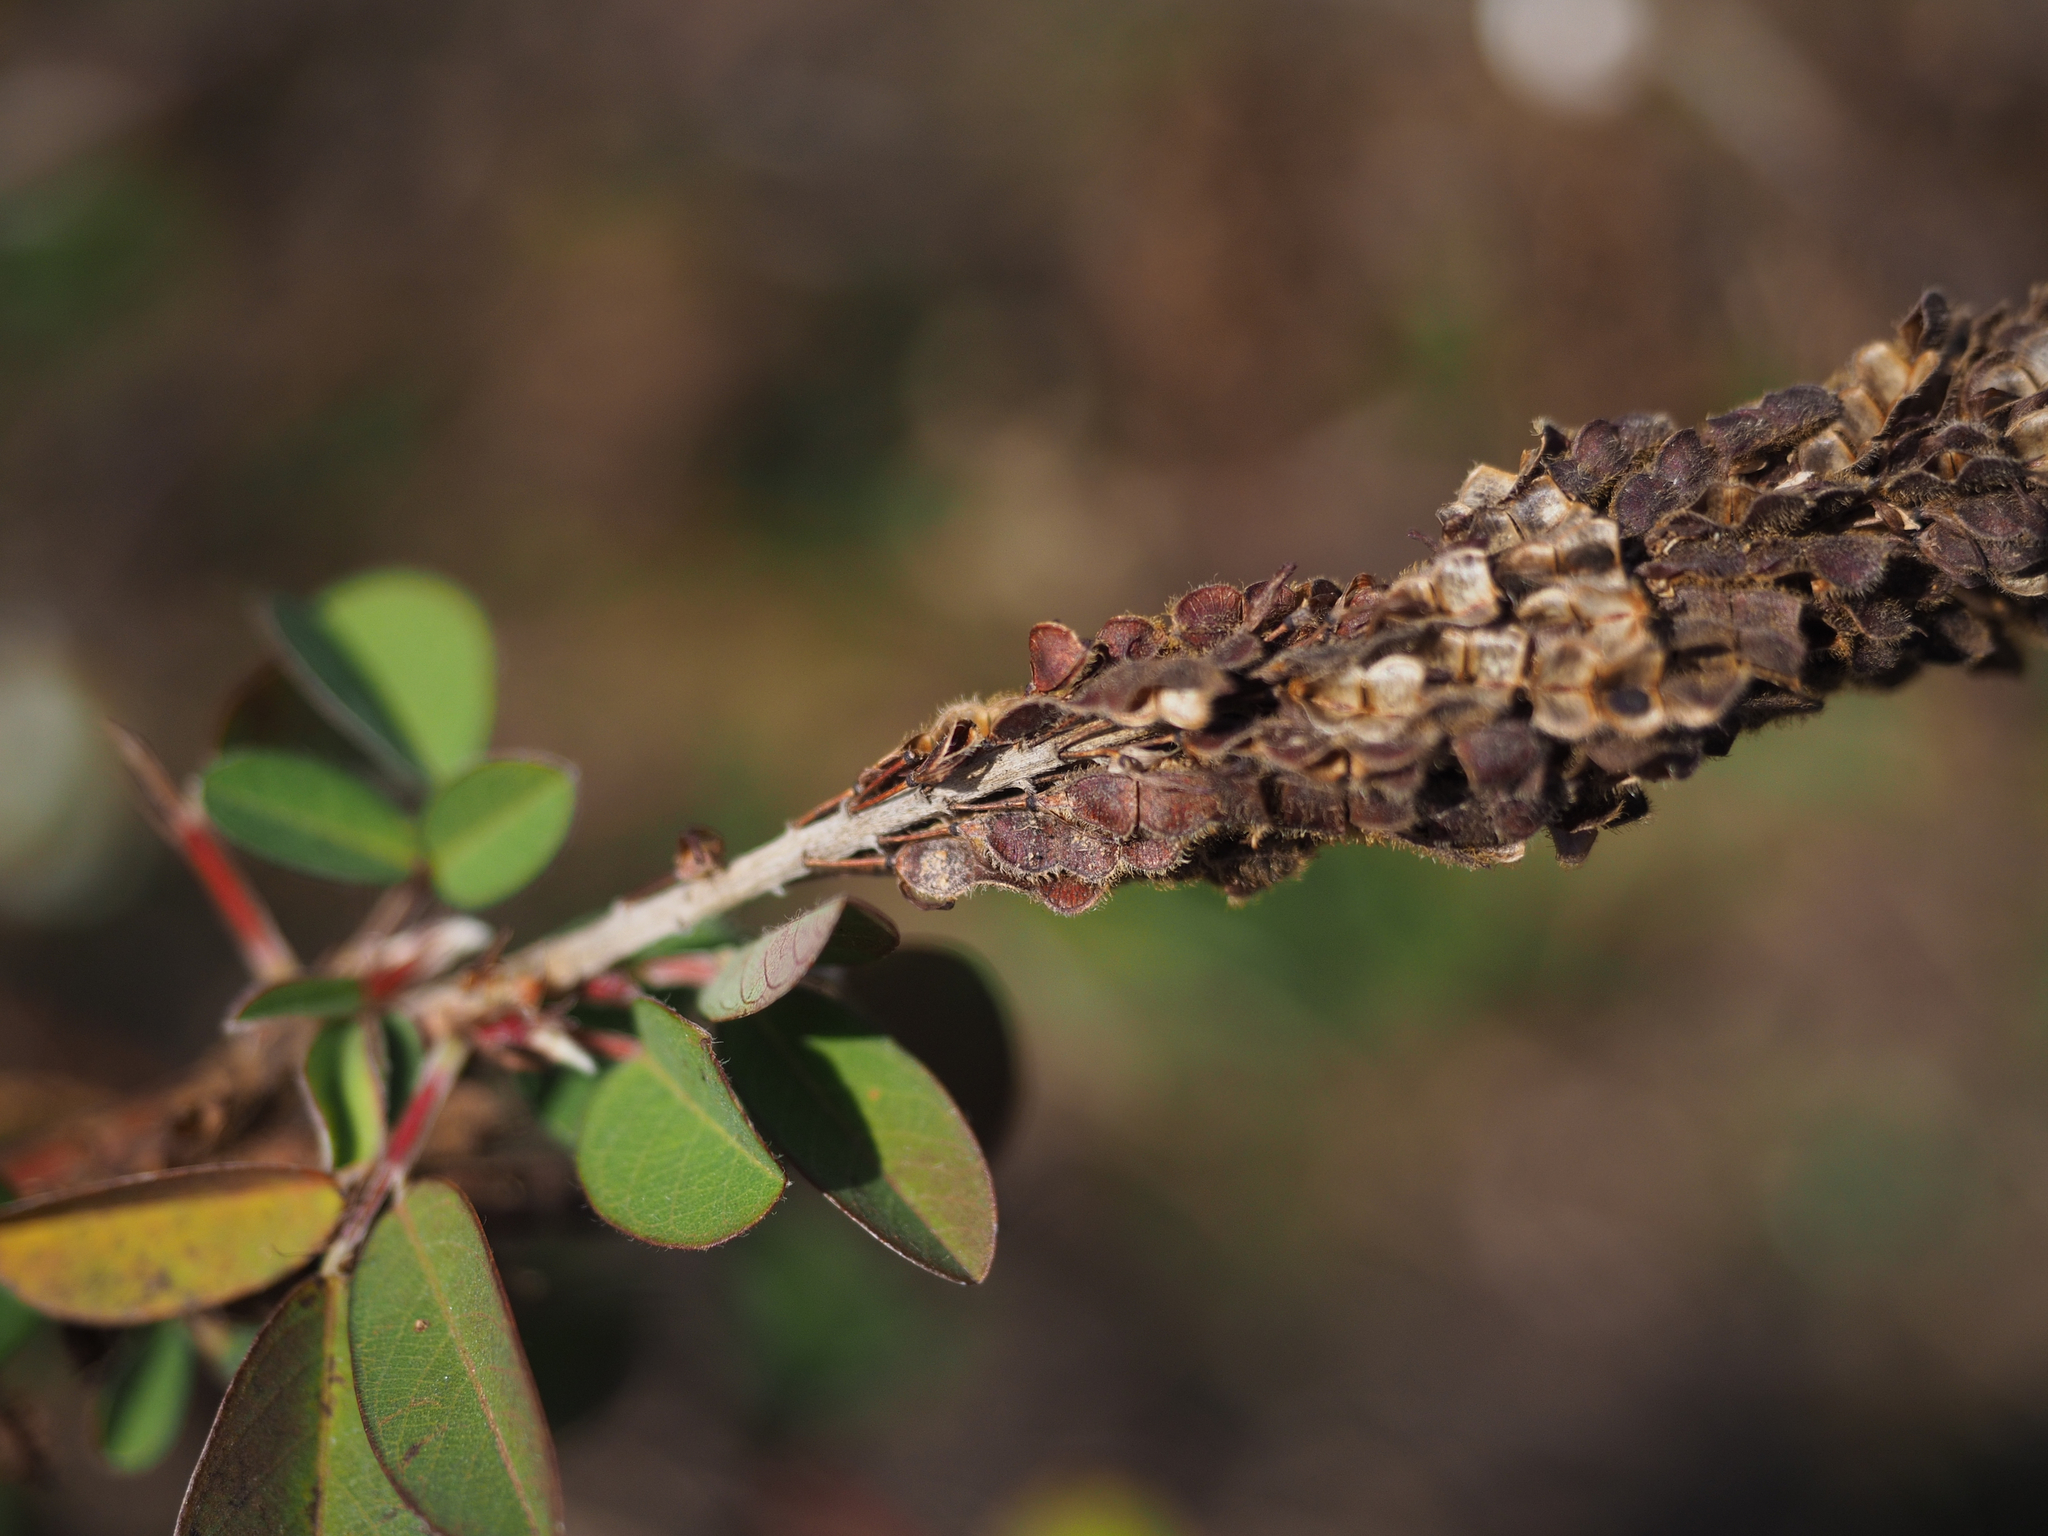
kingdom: Plantae
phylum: Tracheophyta
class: Magnoliopsida
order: Fabales
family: Fabaceae
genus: Grona
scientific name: Grona heterocarpos
